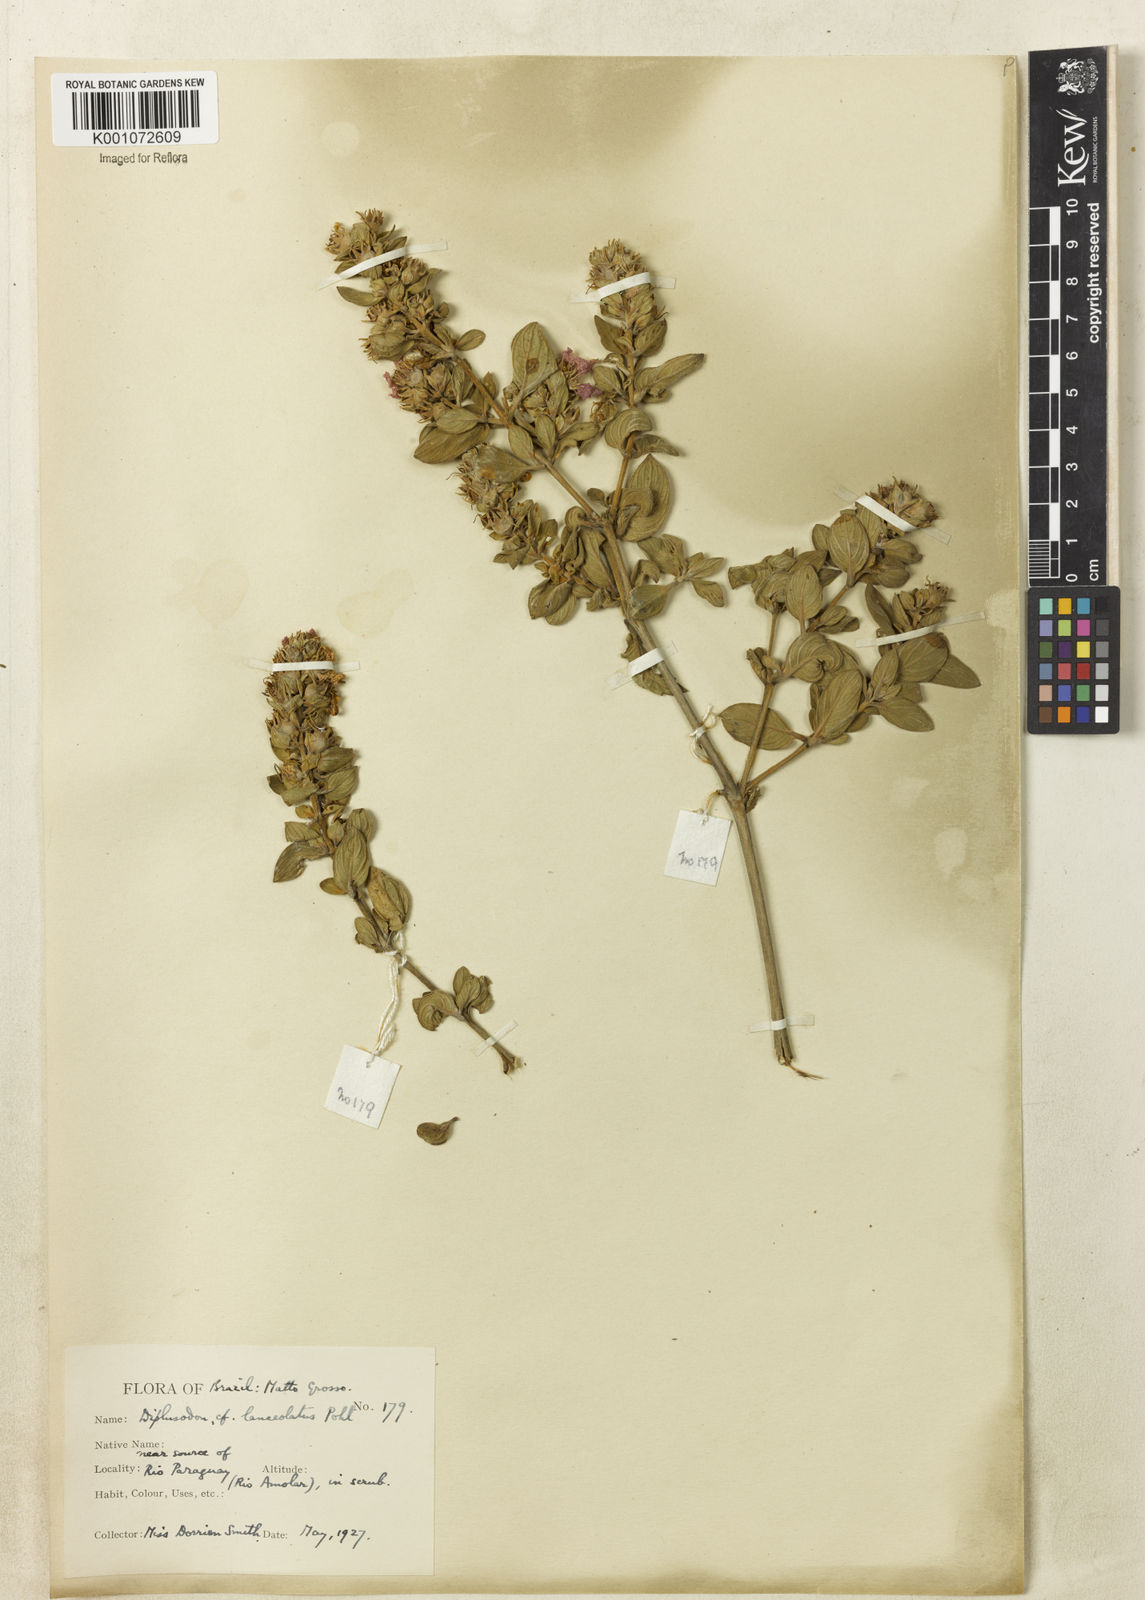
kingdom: Plantae
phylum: Tracheophyta
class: Magnoliopsida
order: Myrtales
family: Lythraceae
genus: Diplusodon
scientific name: Diplusodon lanceolatus
